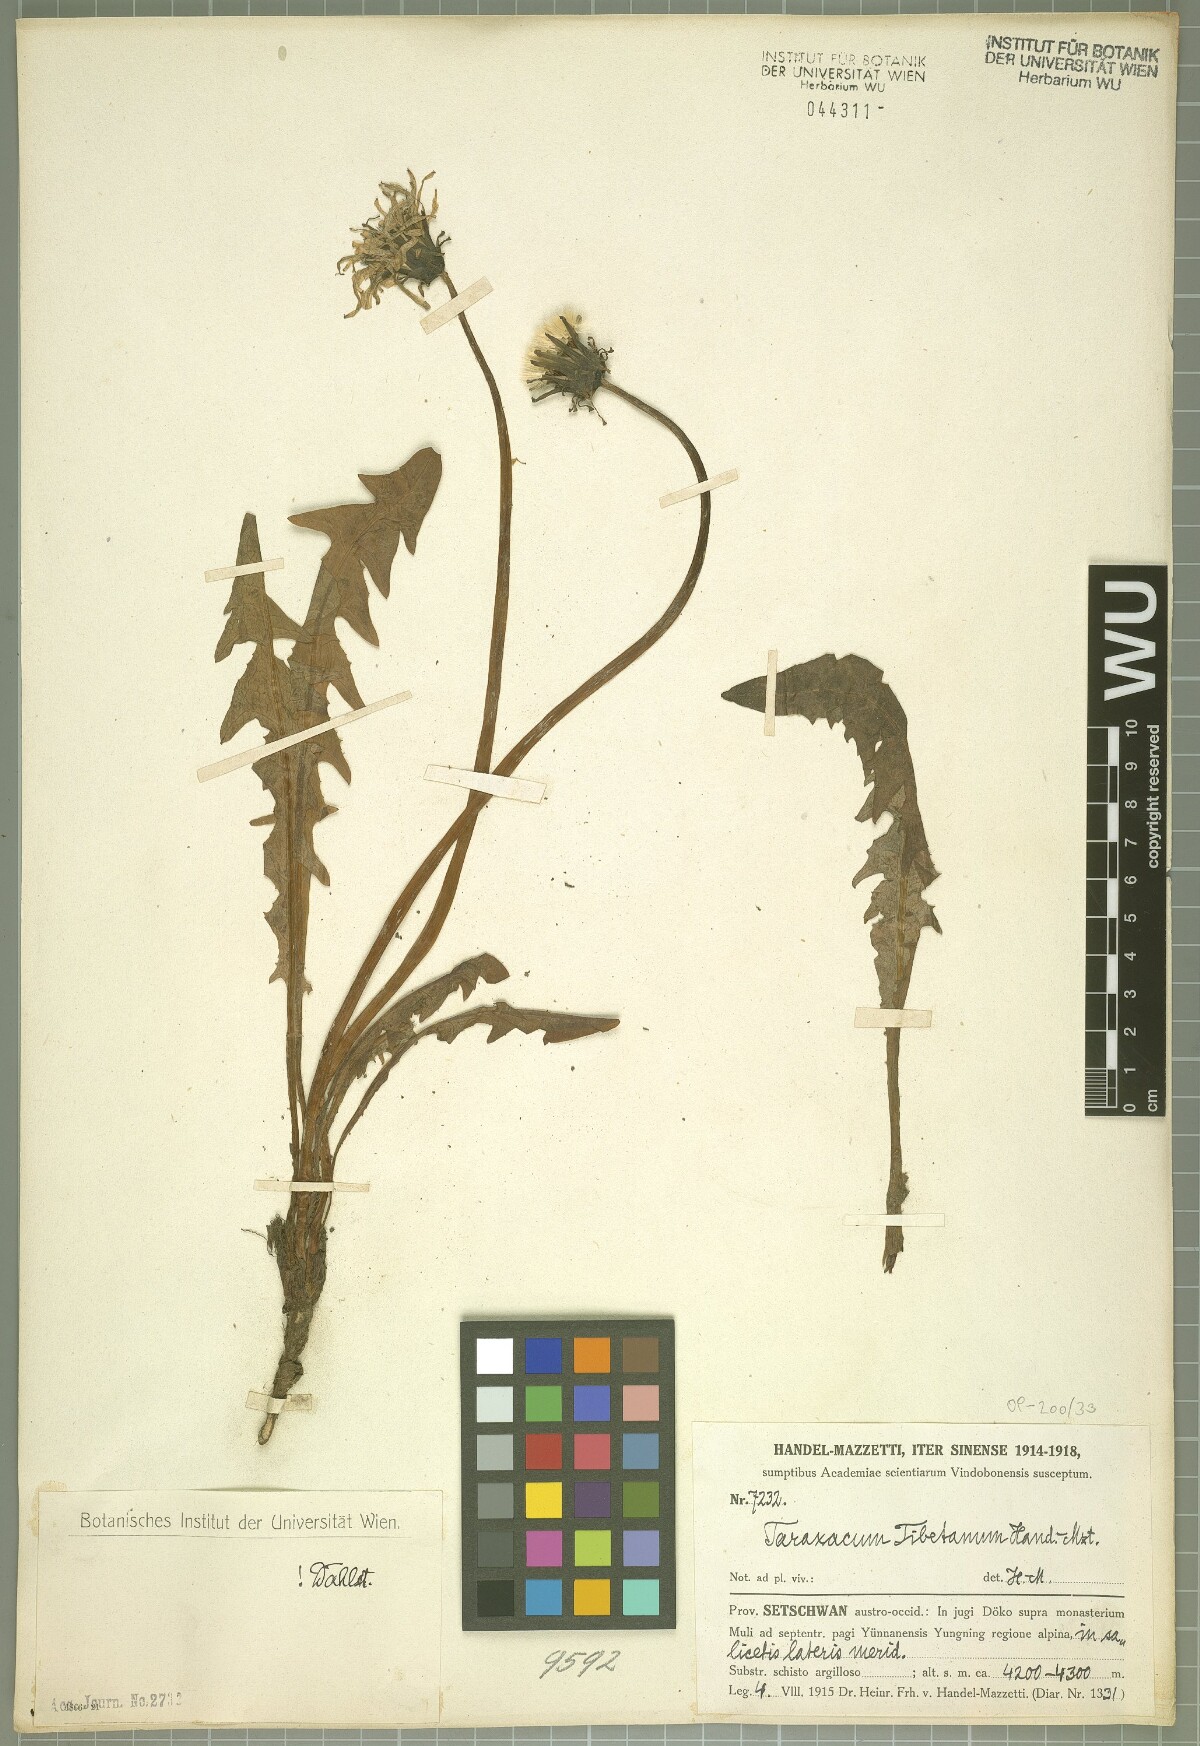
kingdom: Plantae
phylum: Tracheophyta
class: Magnoliopsida
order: Asterales
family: Asteraceae
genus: Taraxacum
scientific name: Taraxacum tibetanum
